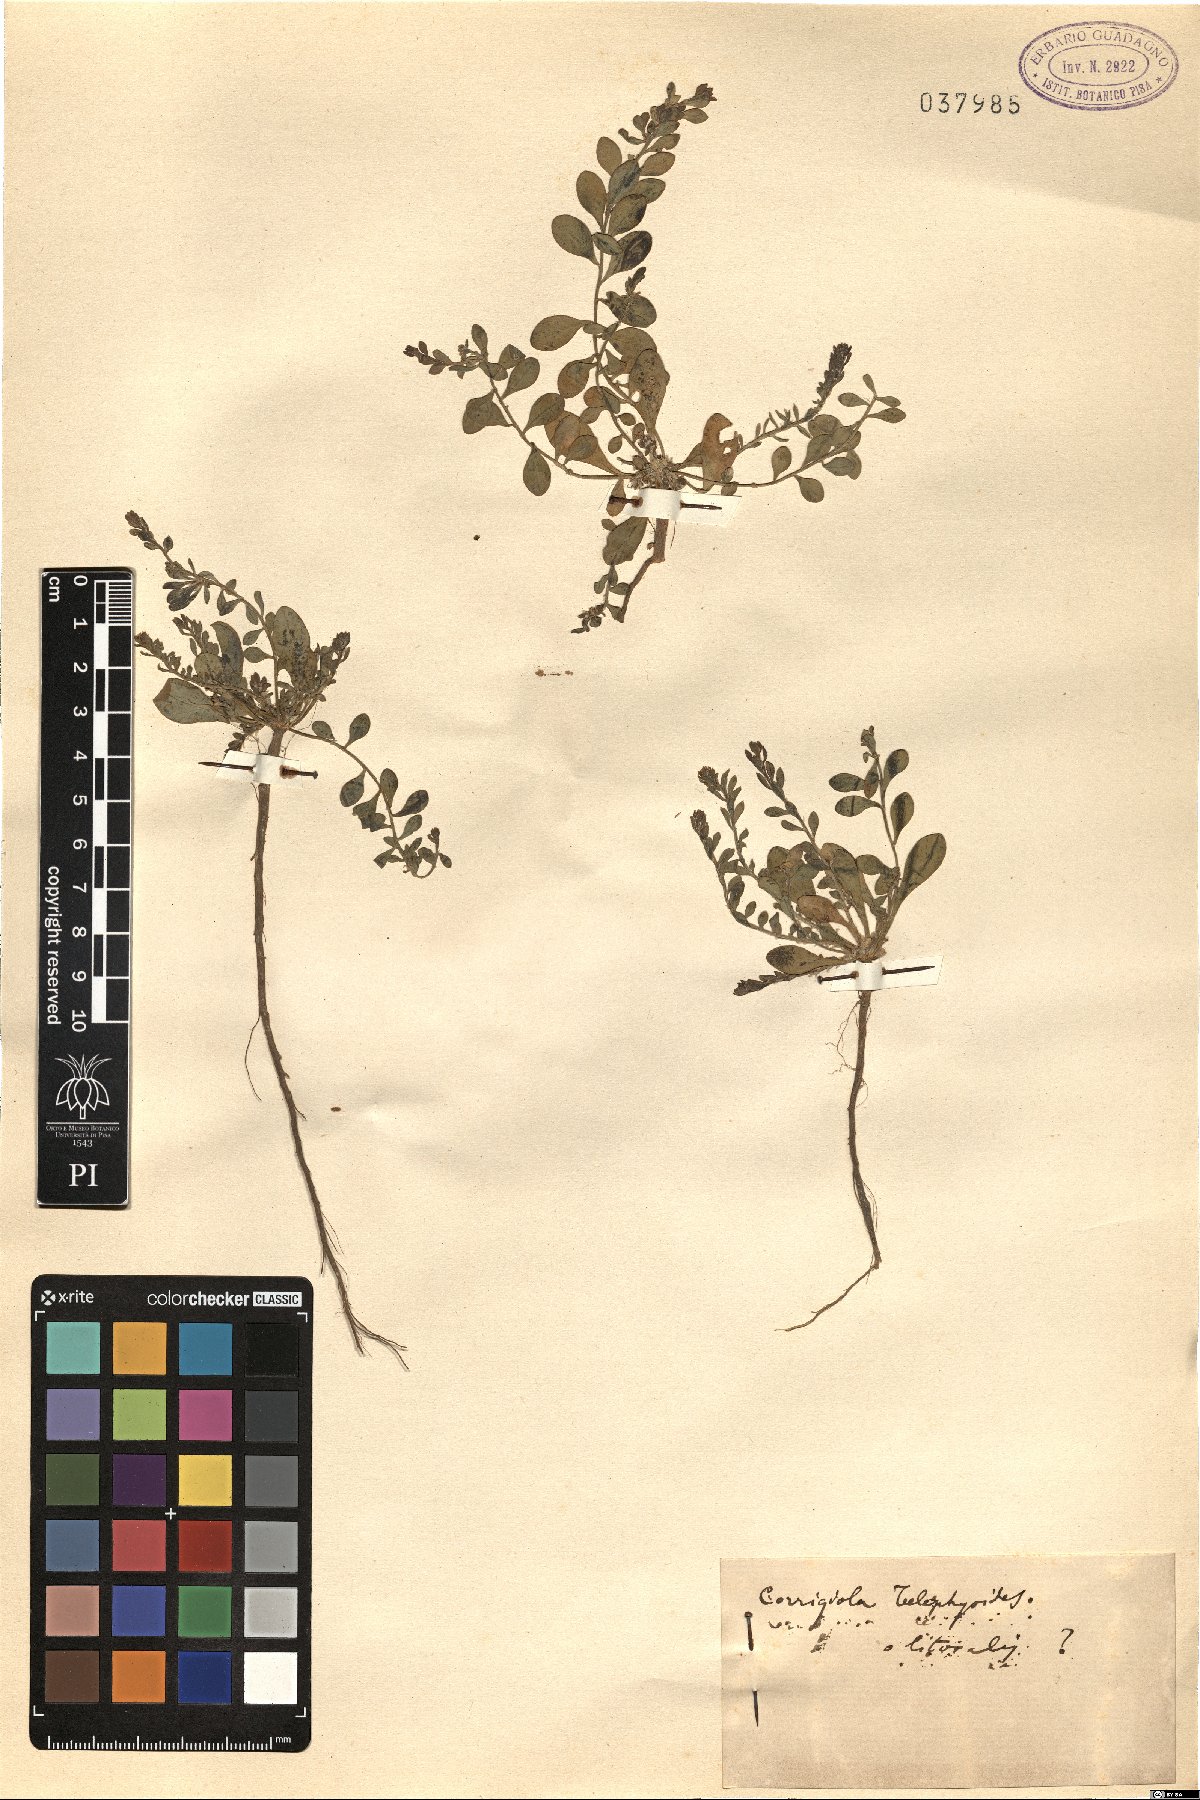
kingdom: Plantae
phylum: Tracheophyta
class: Magnoliopsida
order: Caryophyllales
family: Caryophyllaceae
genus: Corrigiola
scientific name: Corrigiola litoralis
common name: Strapwort
